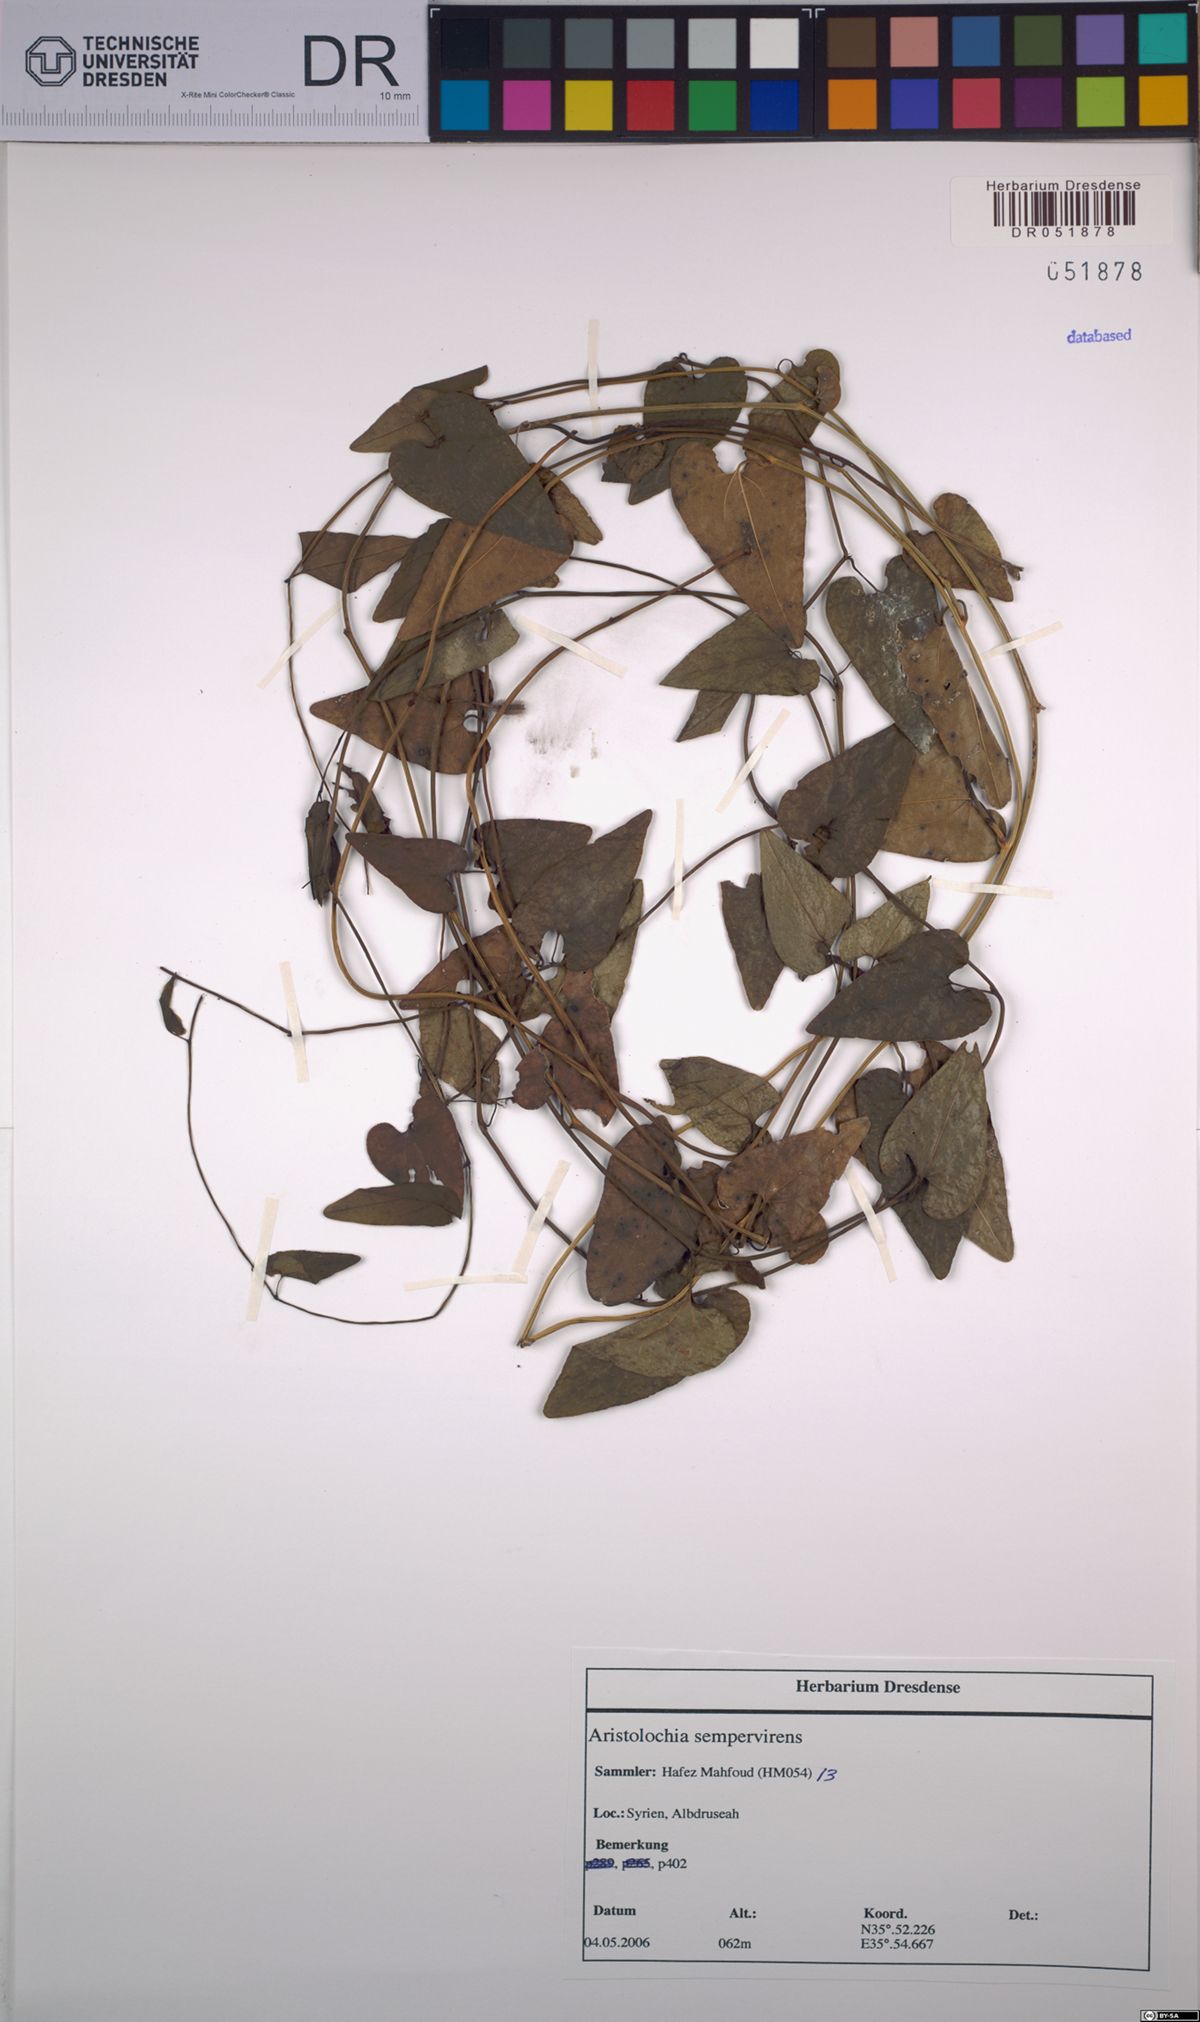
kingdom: Plantae
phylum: Tracheophyta
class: Magnoliopsida
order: Piperales
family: Aristolochiaceae
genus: Aristolochia
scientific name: Aristolochia sempervirens
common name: Long birthwort
